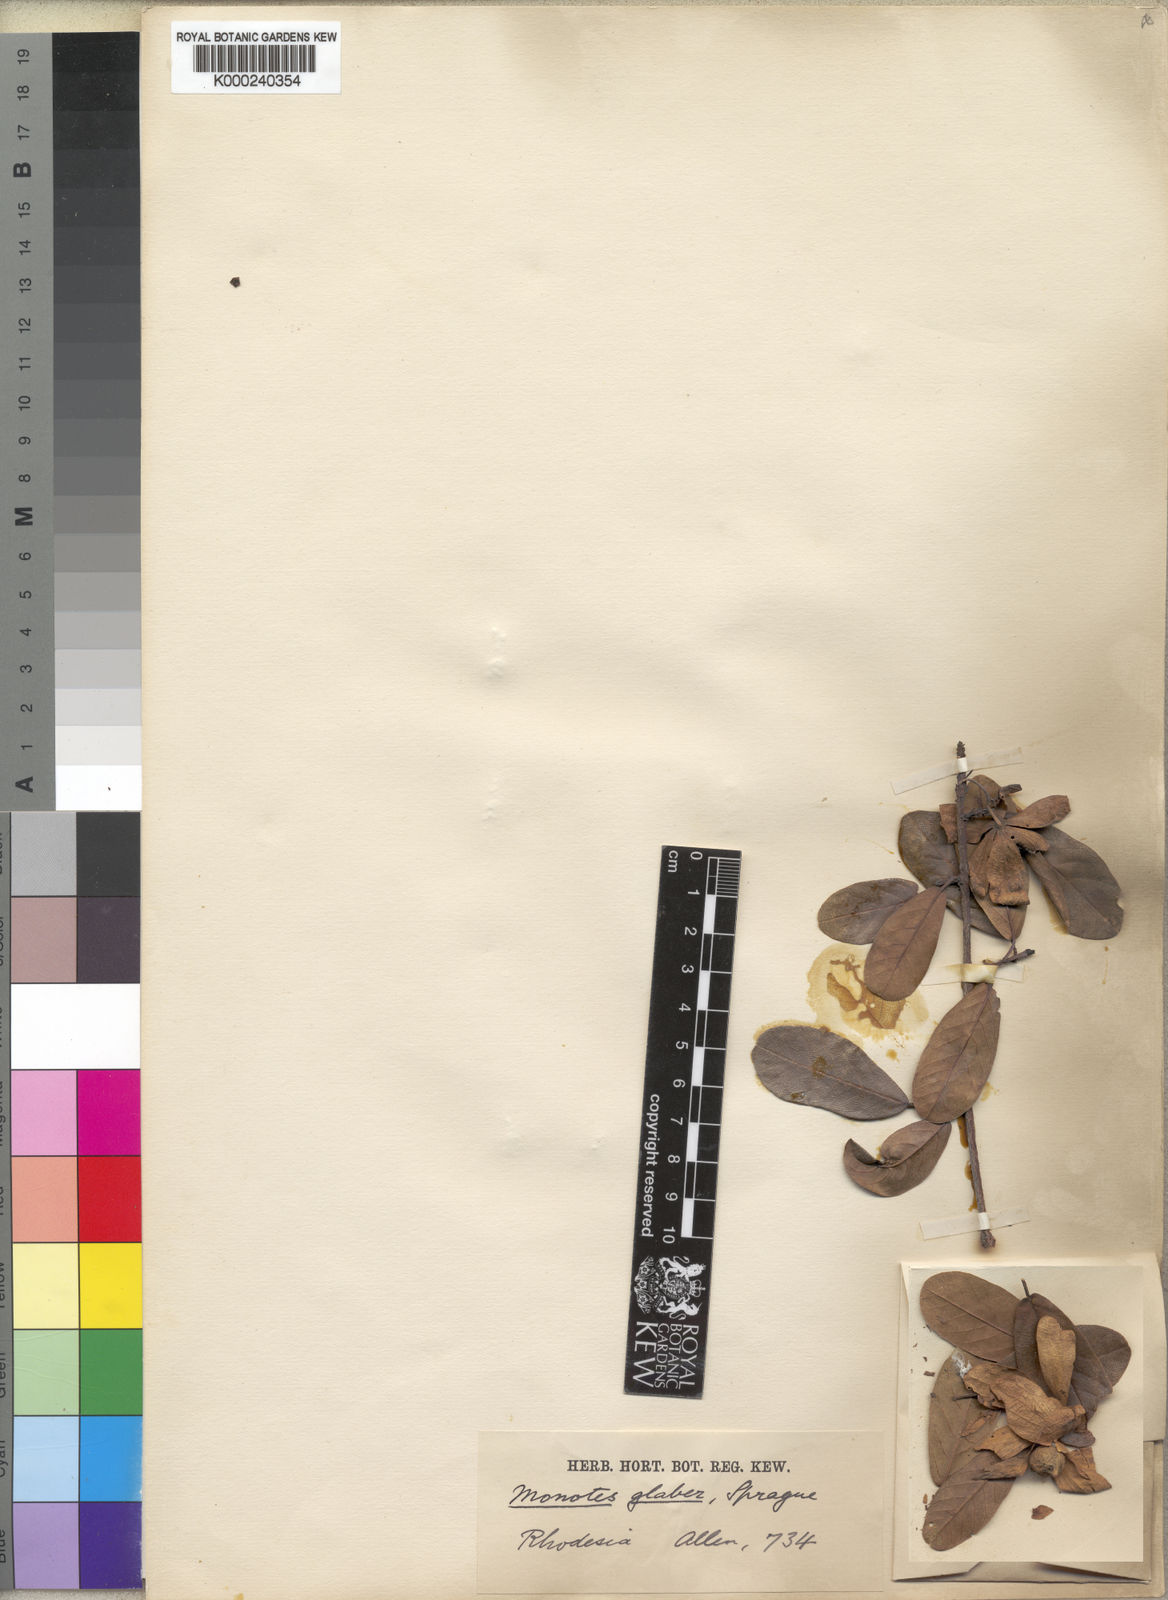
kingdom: Plantae
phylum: Tracheophyta
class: Magnoliopsida
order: Malvales
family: Dipterocarpaceae
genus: Monotes
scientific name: Monotes glaber
